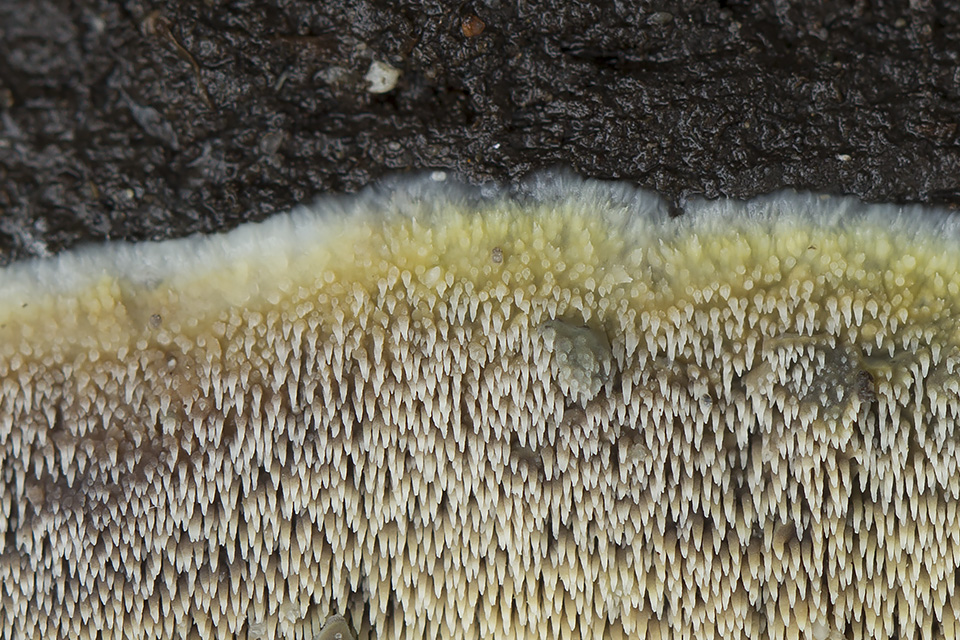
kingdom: Fungi
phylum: Basidiomycota
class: Agaricomycetes
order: Polyporales
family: Meruliaceae
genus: Mycoacia
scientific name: Mycoacia uda
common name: citrongul vokspig
